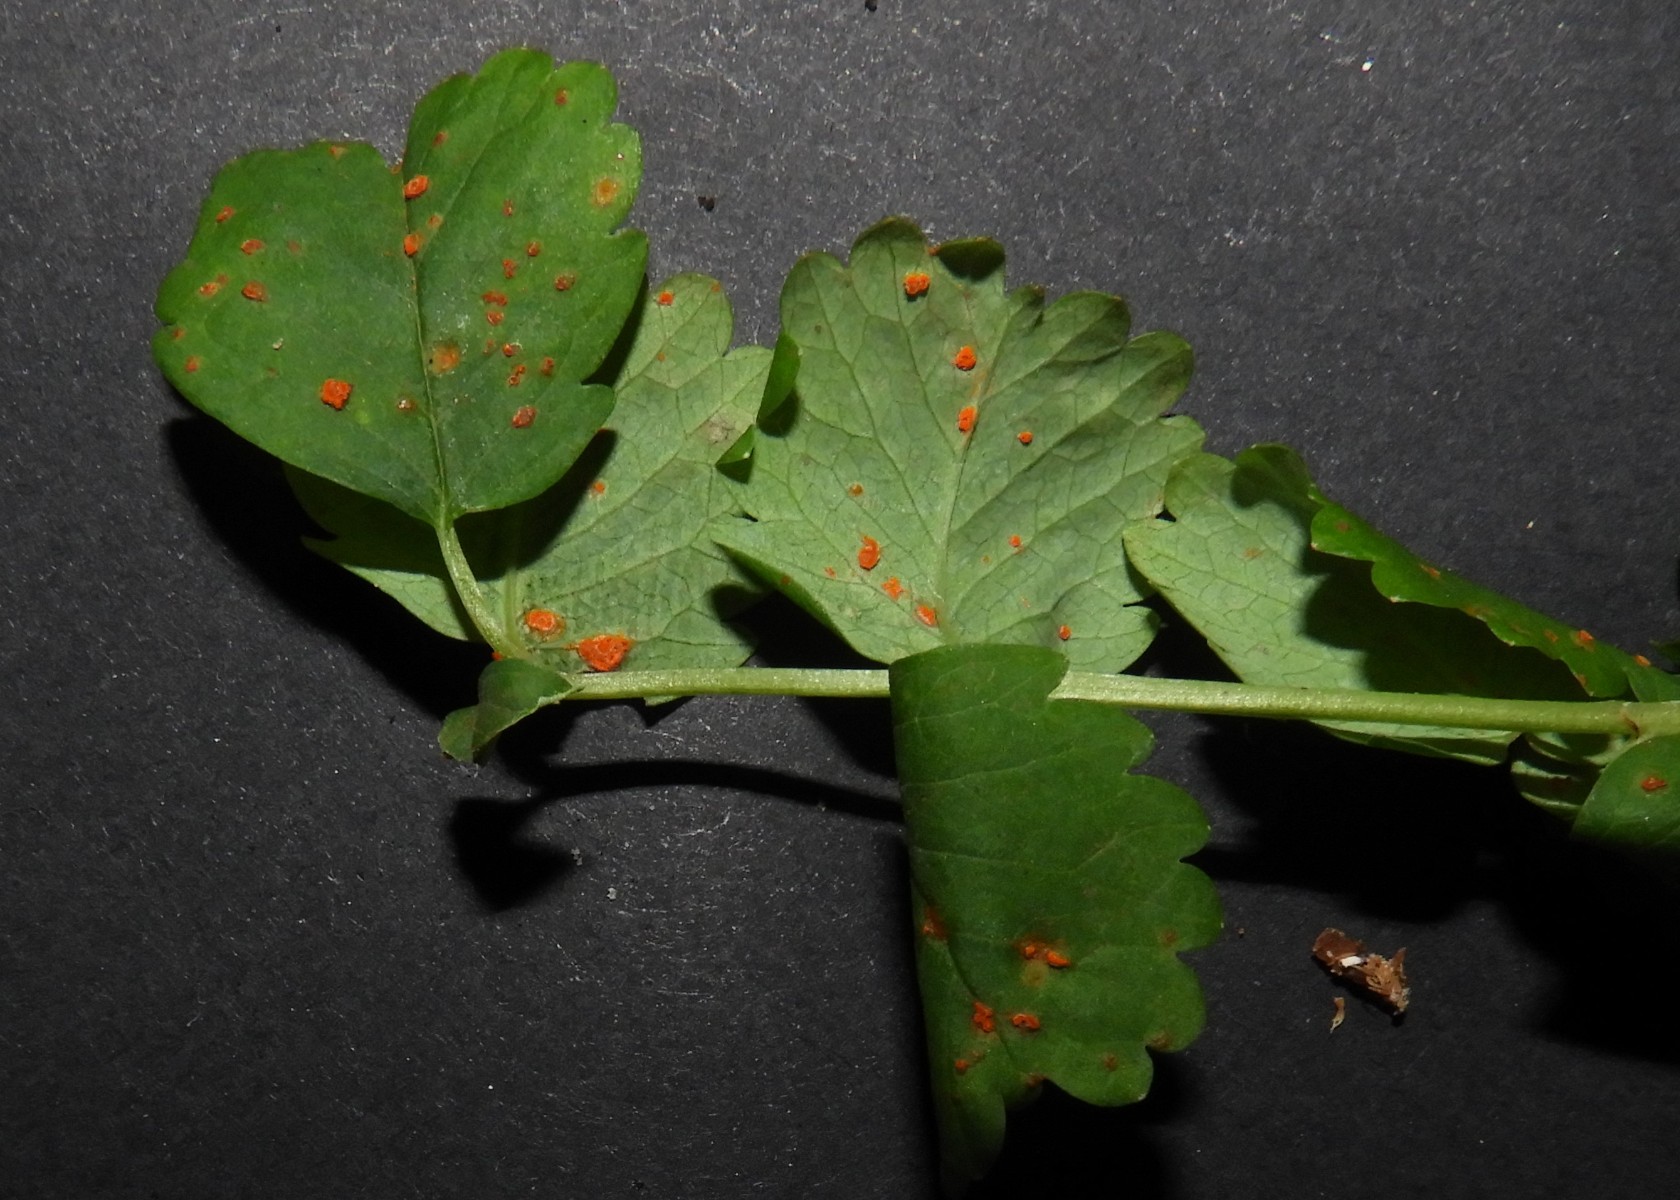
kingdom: Fungi
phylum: Basidiomycota
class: Pucciniomycetes
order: Pucciniales
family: Phragmidiaceae
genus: Phragmidium
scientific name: Phragmidium sanguisorbae
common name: Salad burnet rust
